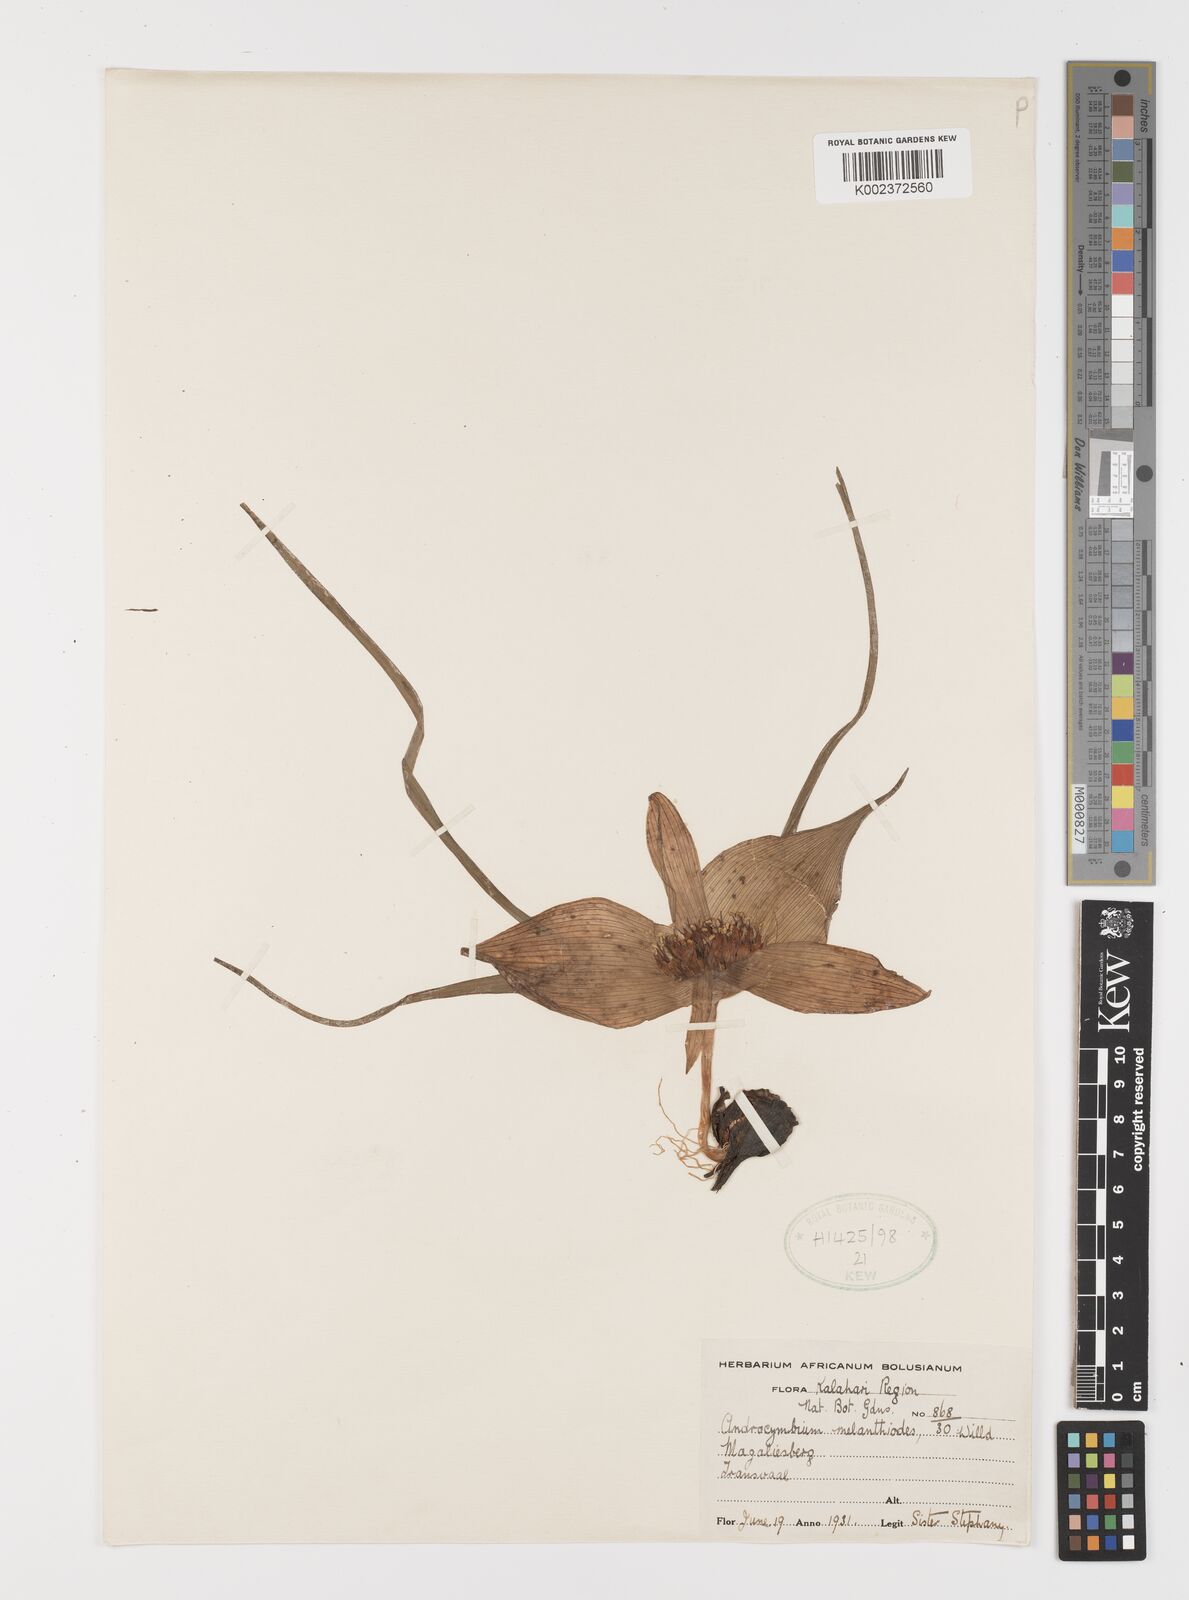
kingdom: Plantae
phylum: Tracheophyta
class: Liliopsida
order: Liliales
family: Colchicaceae
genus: Colchicum
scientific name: Colchicum melanthioides
